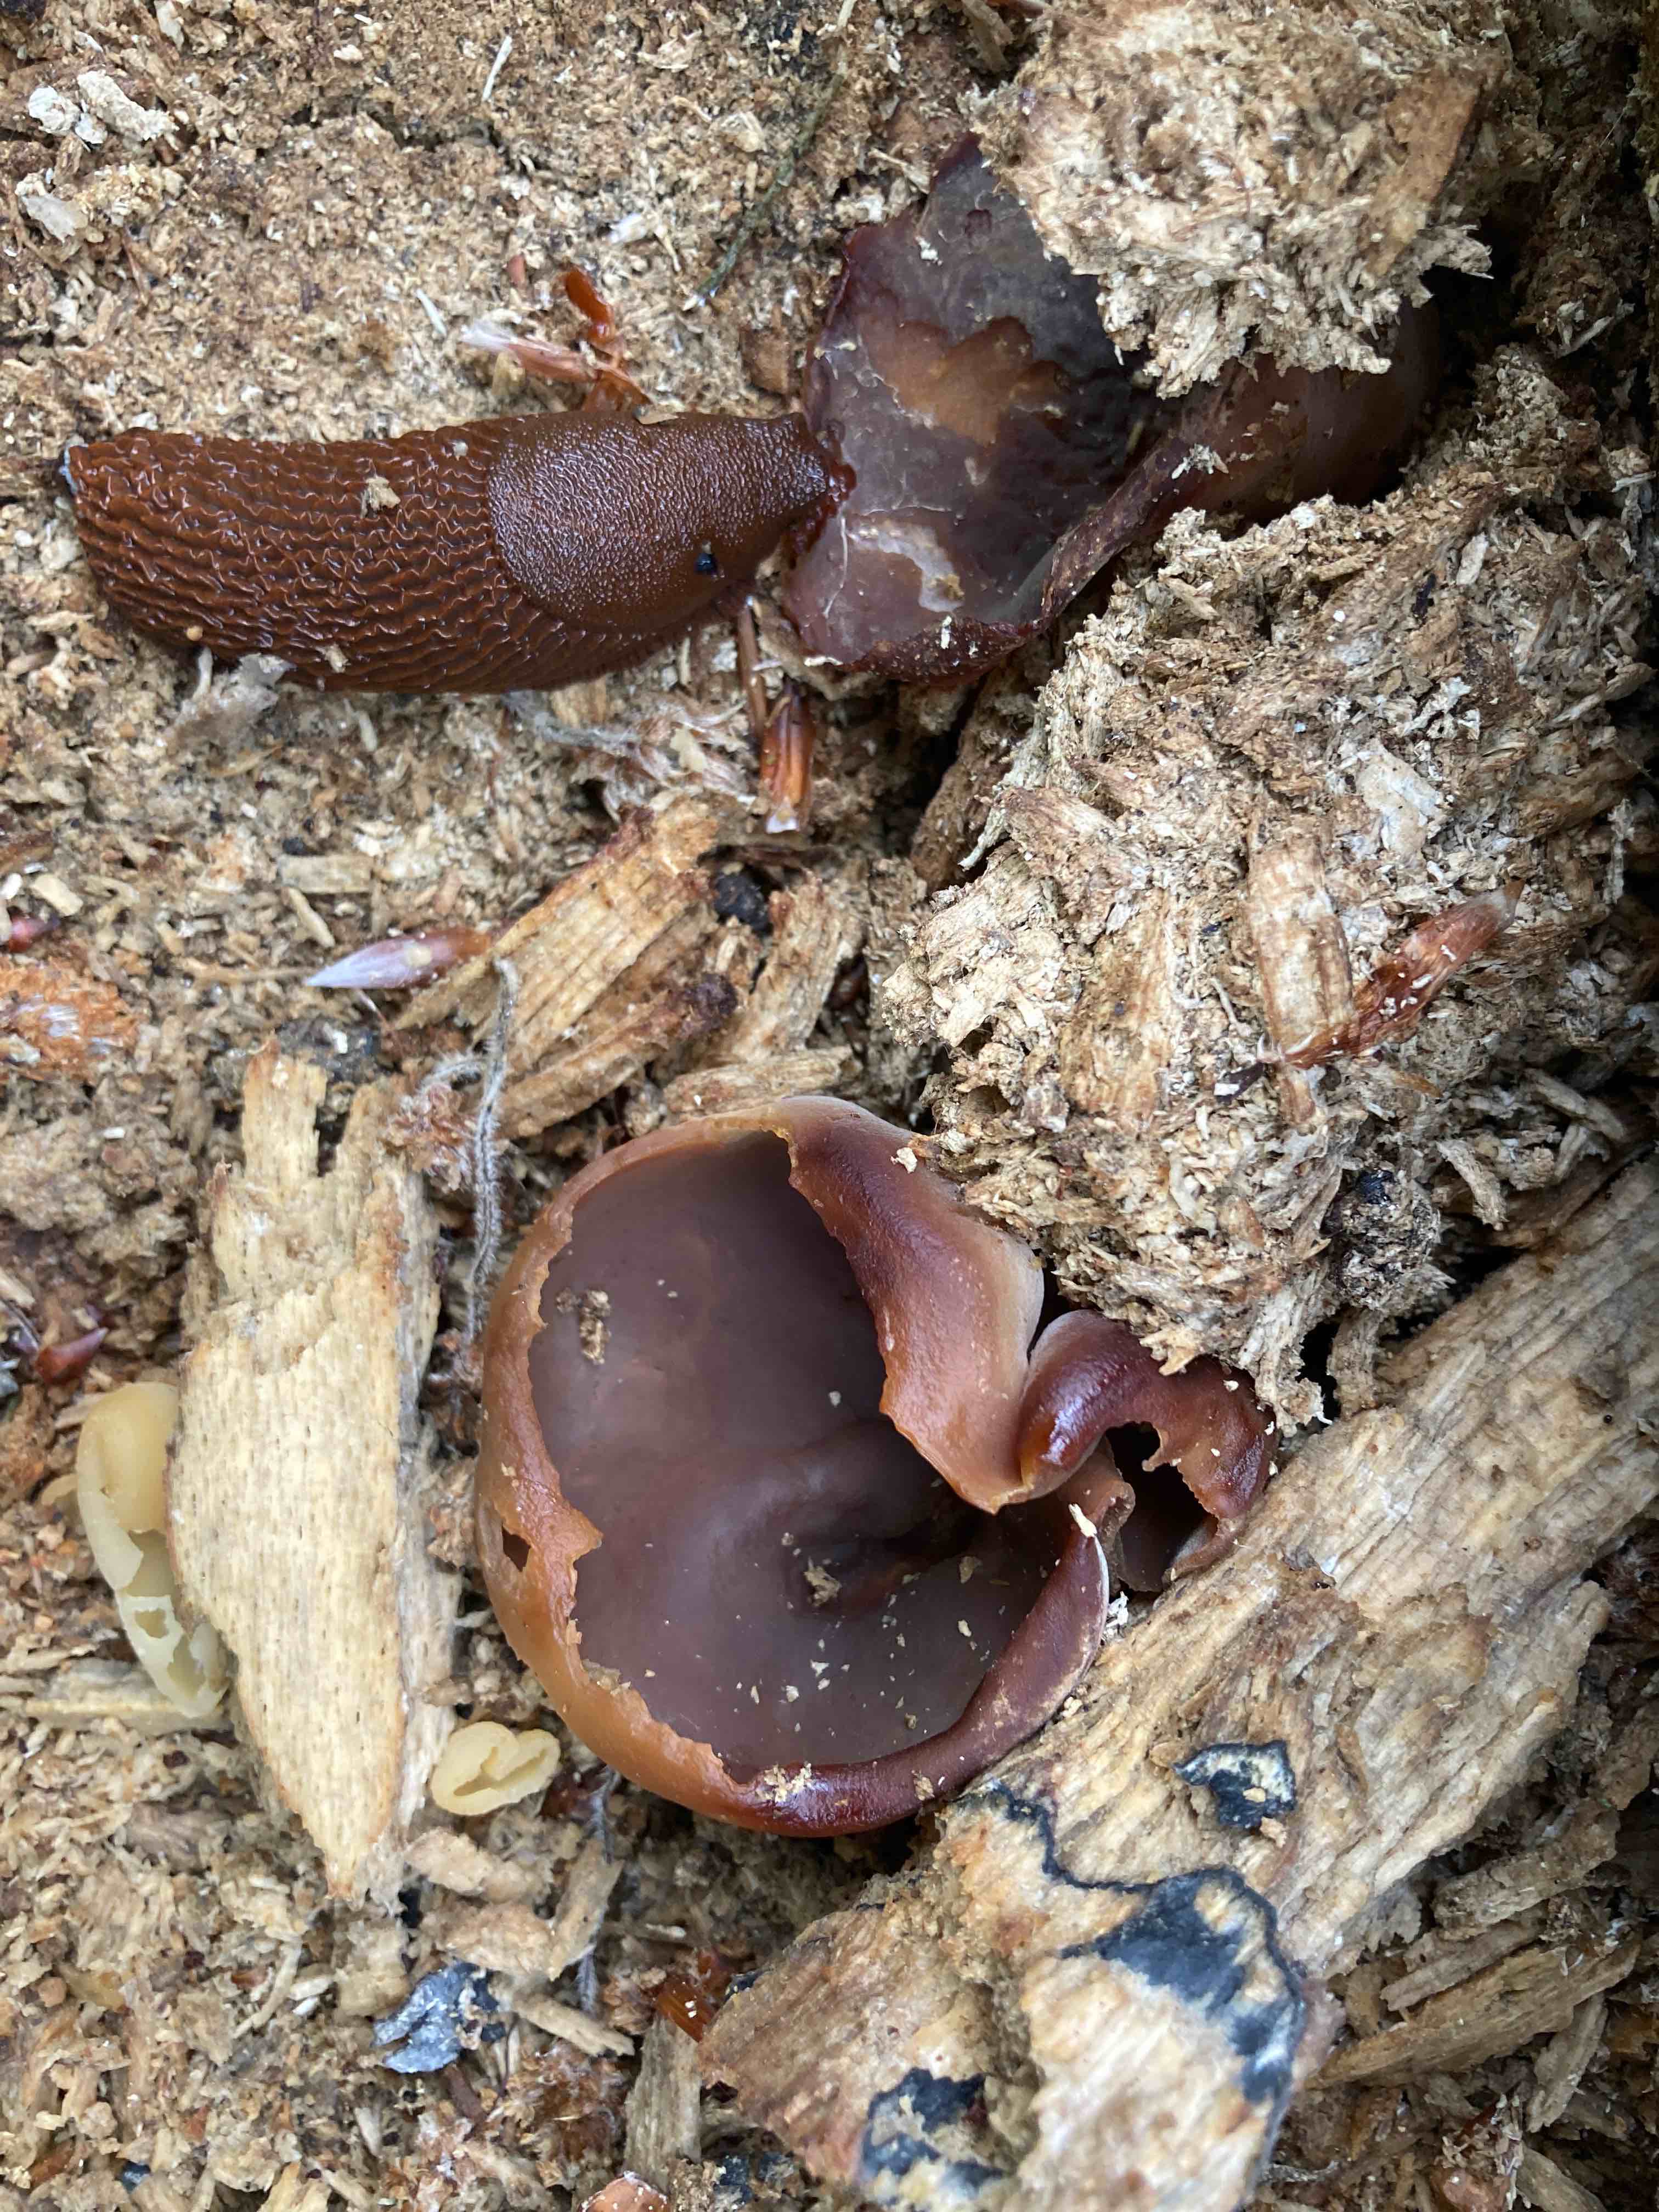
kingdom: Fungi
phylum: Ascomycota
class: Pezizomycetes
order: Pezizales
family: Pezizaceae
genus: Peziza
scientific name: Peziza varia
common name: Ved-bægersvamp
